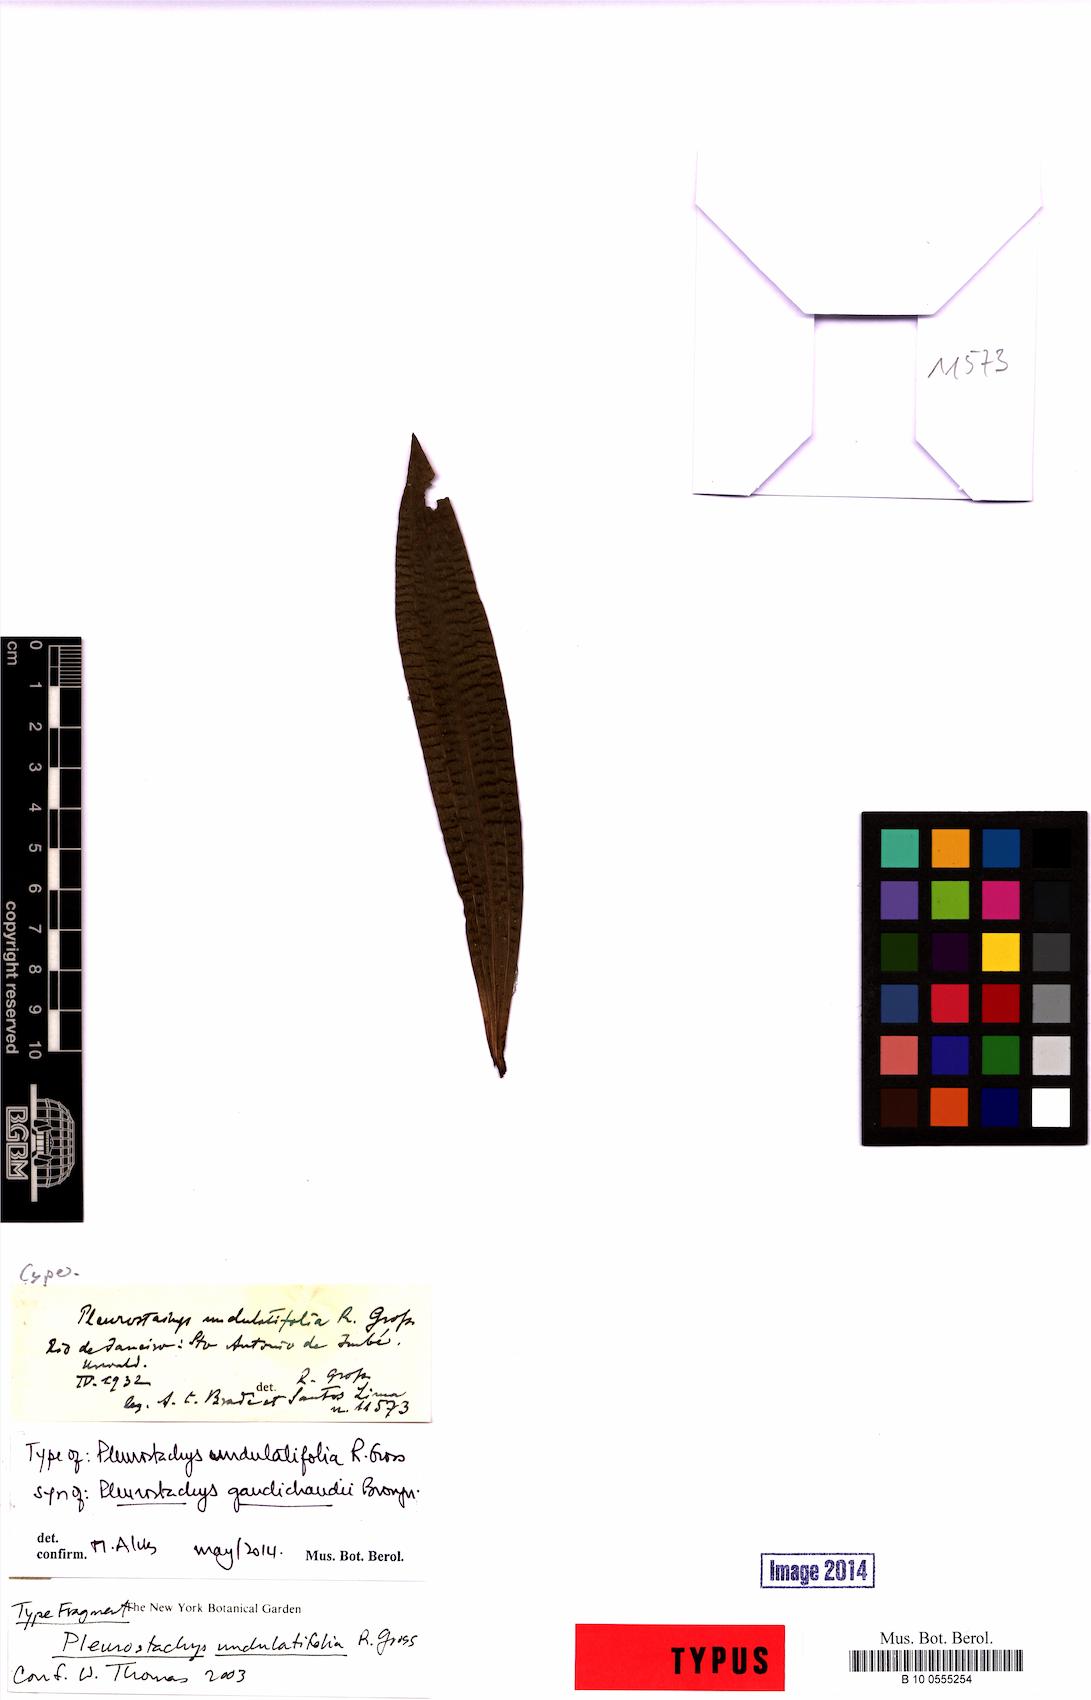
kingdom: Plantae
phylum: Tracheophyta
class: Liliopsida
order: Poales
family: Cyperaceae
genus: Rhynchospora
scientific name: Rhynchospora gaudichaudii
